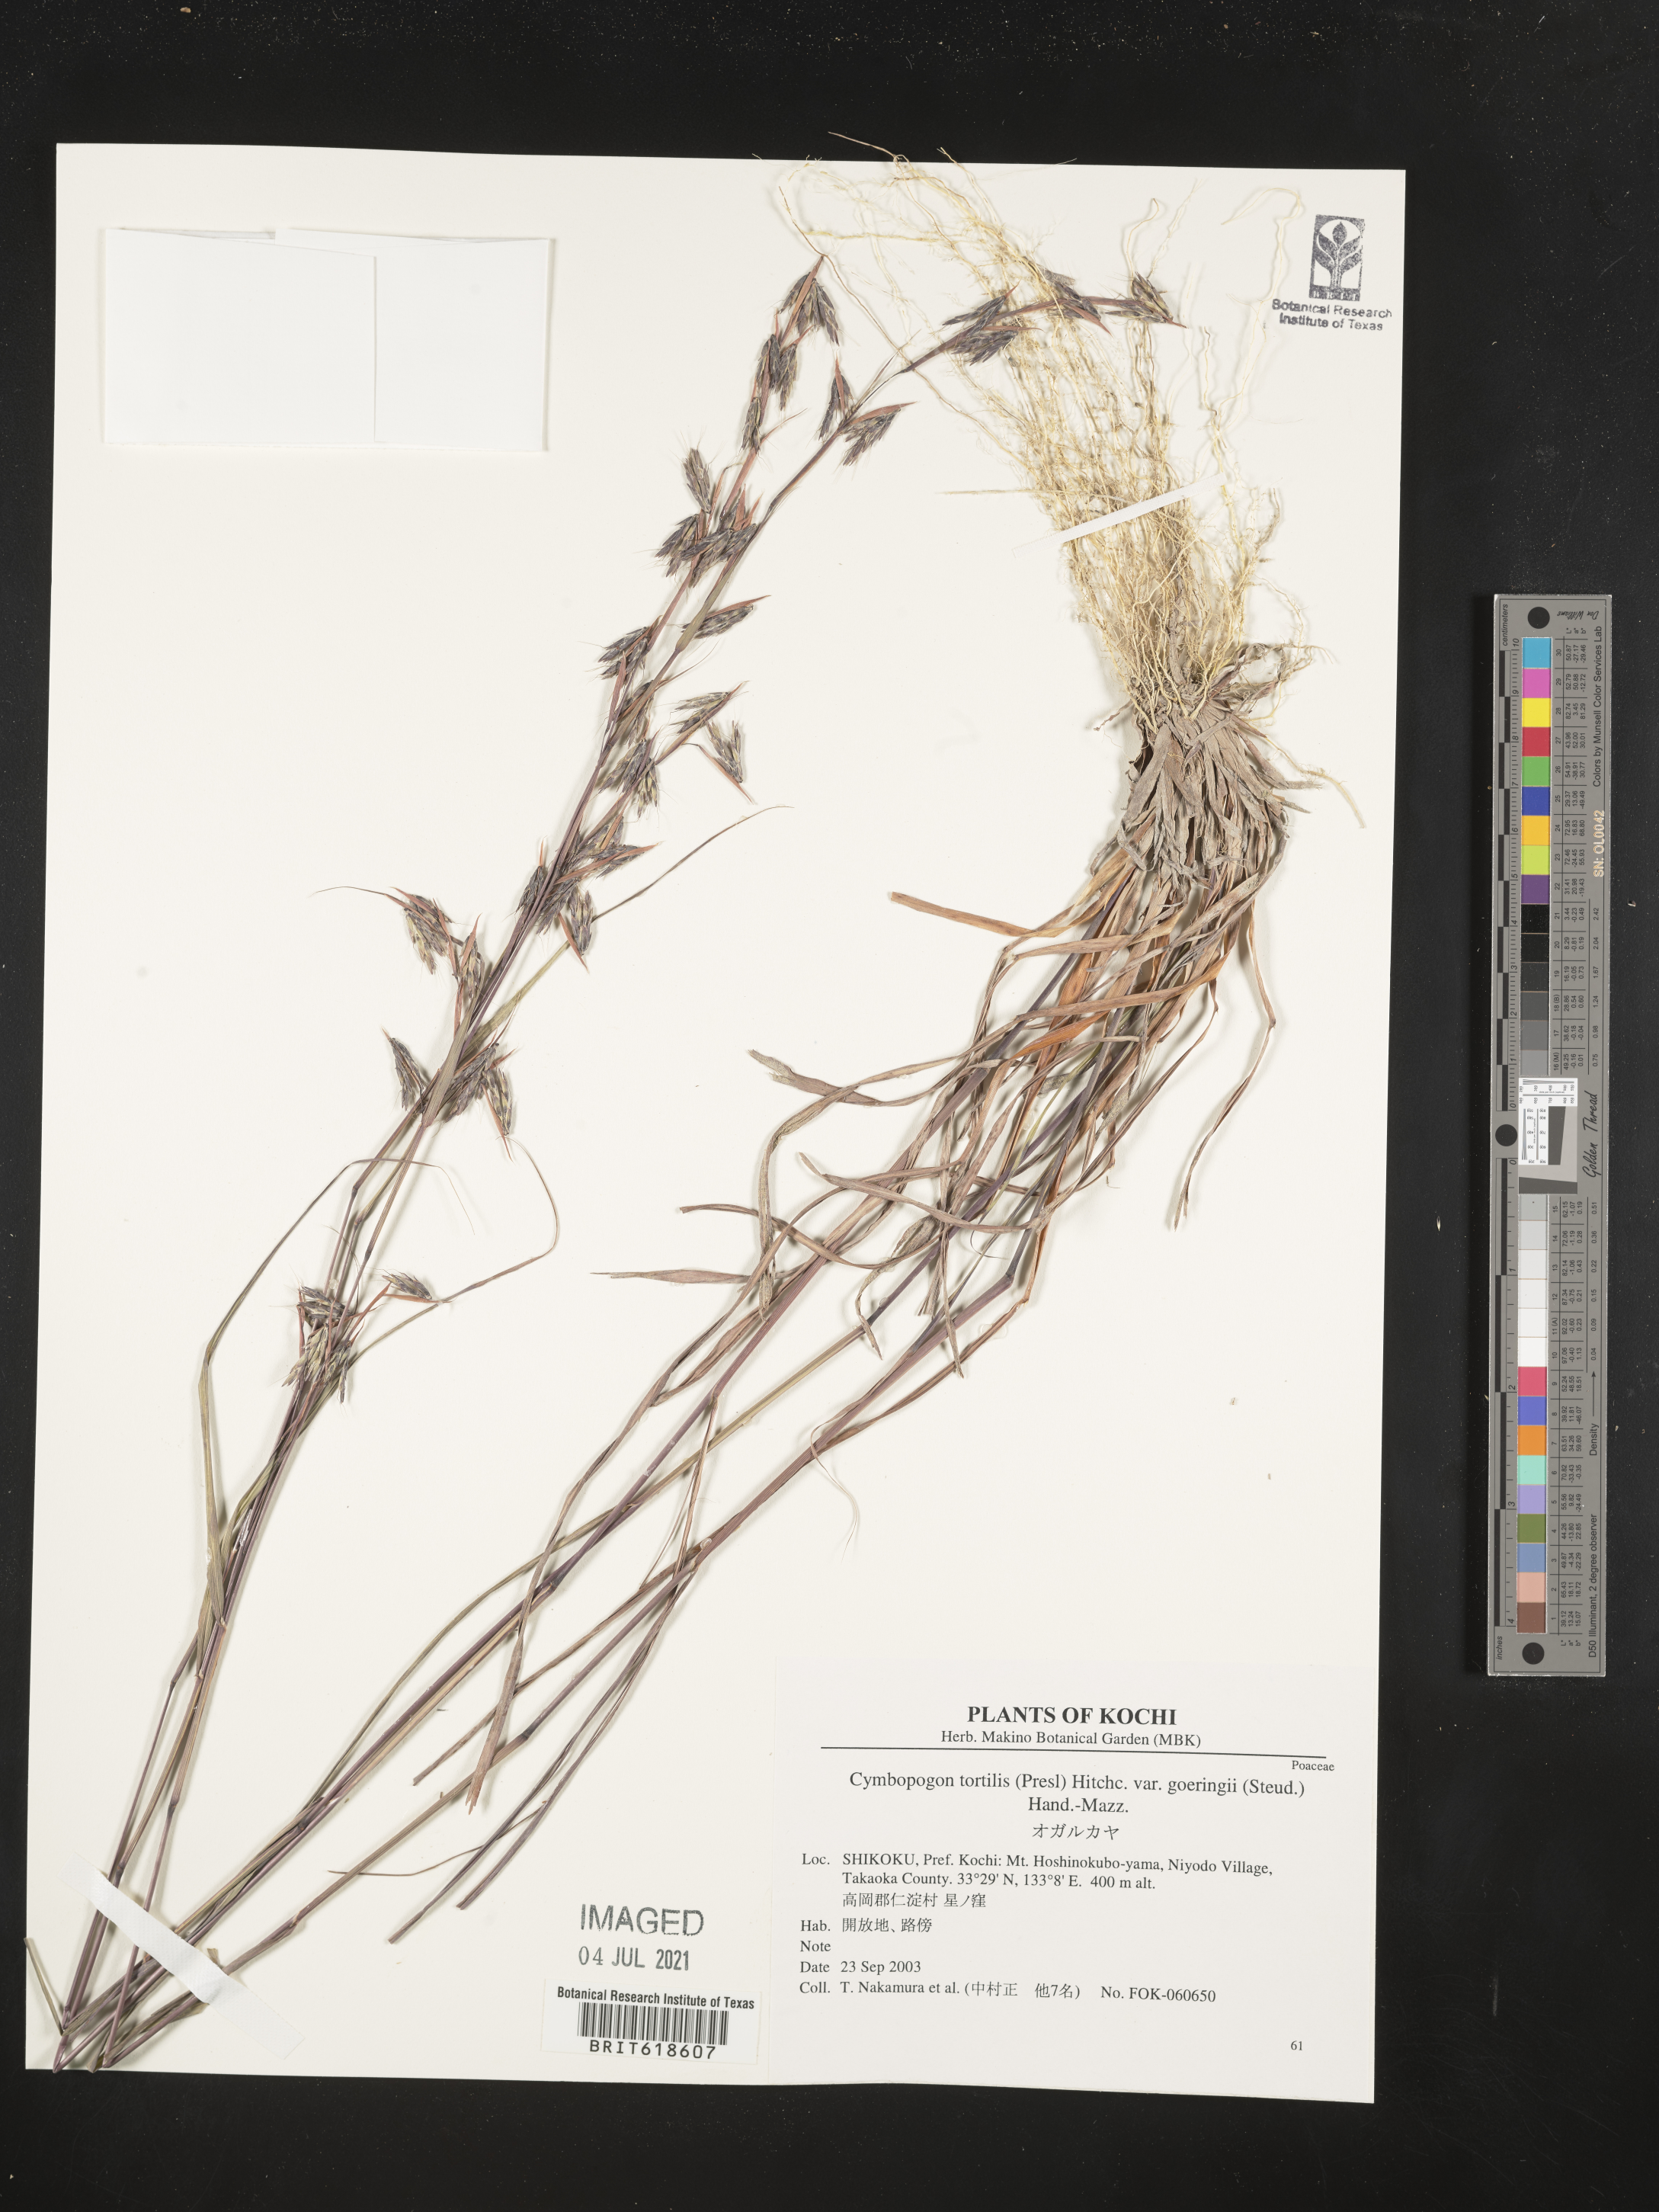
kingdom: Plantae
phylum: Tracheophyta
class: Liliopsida
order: Poales
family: Poaceae
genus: Cymbopogon
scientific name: Cymbopogon goeringii
